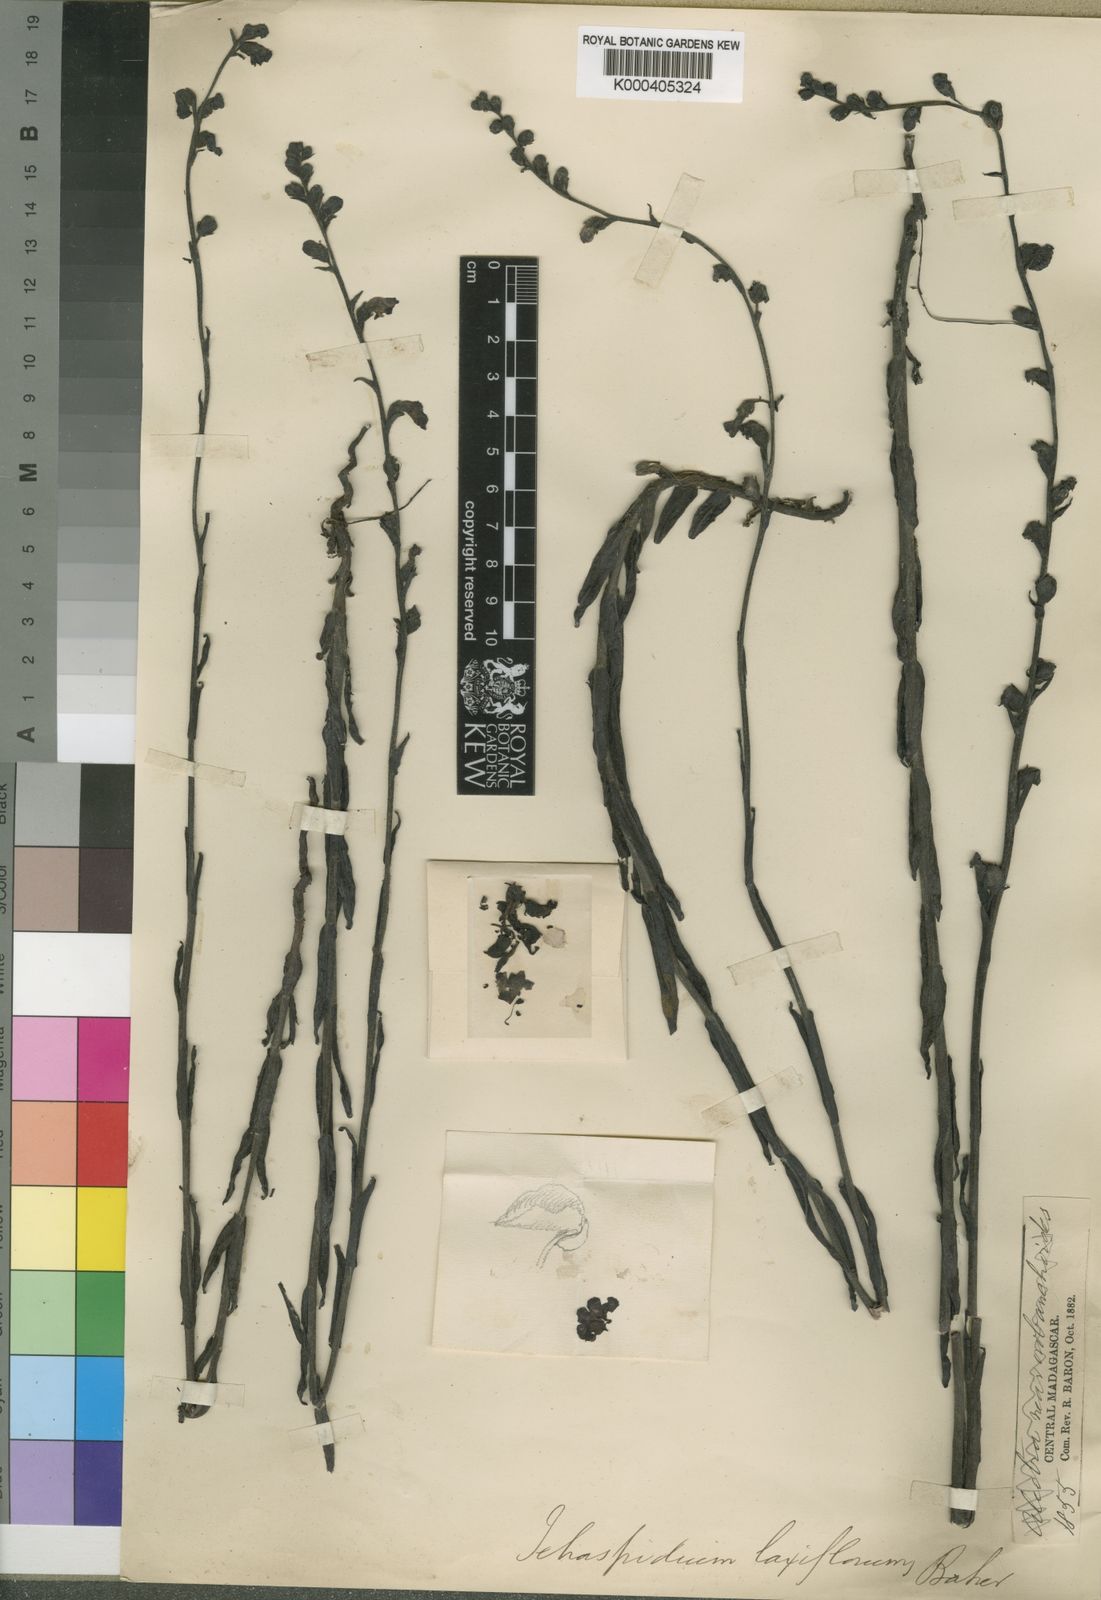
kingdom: Plantae
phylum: Tracheophyta
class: Magnoliopsida
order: Lamiales
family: Orobanchaceae
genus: Tetraspidium
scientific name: Tetraspidium laxiflorum
